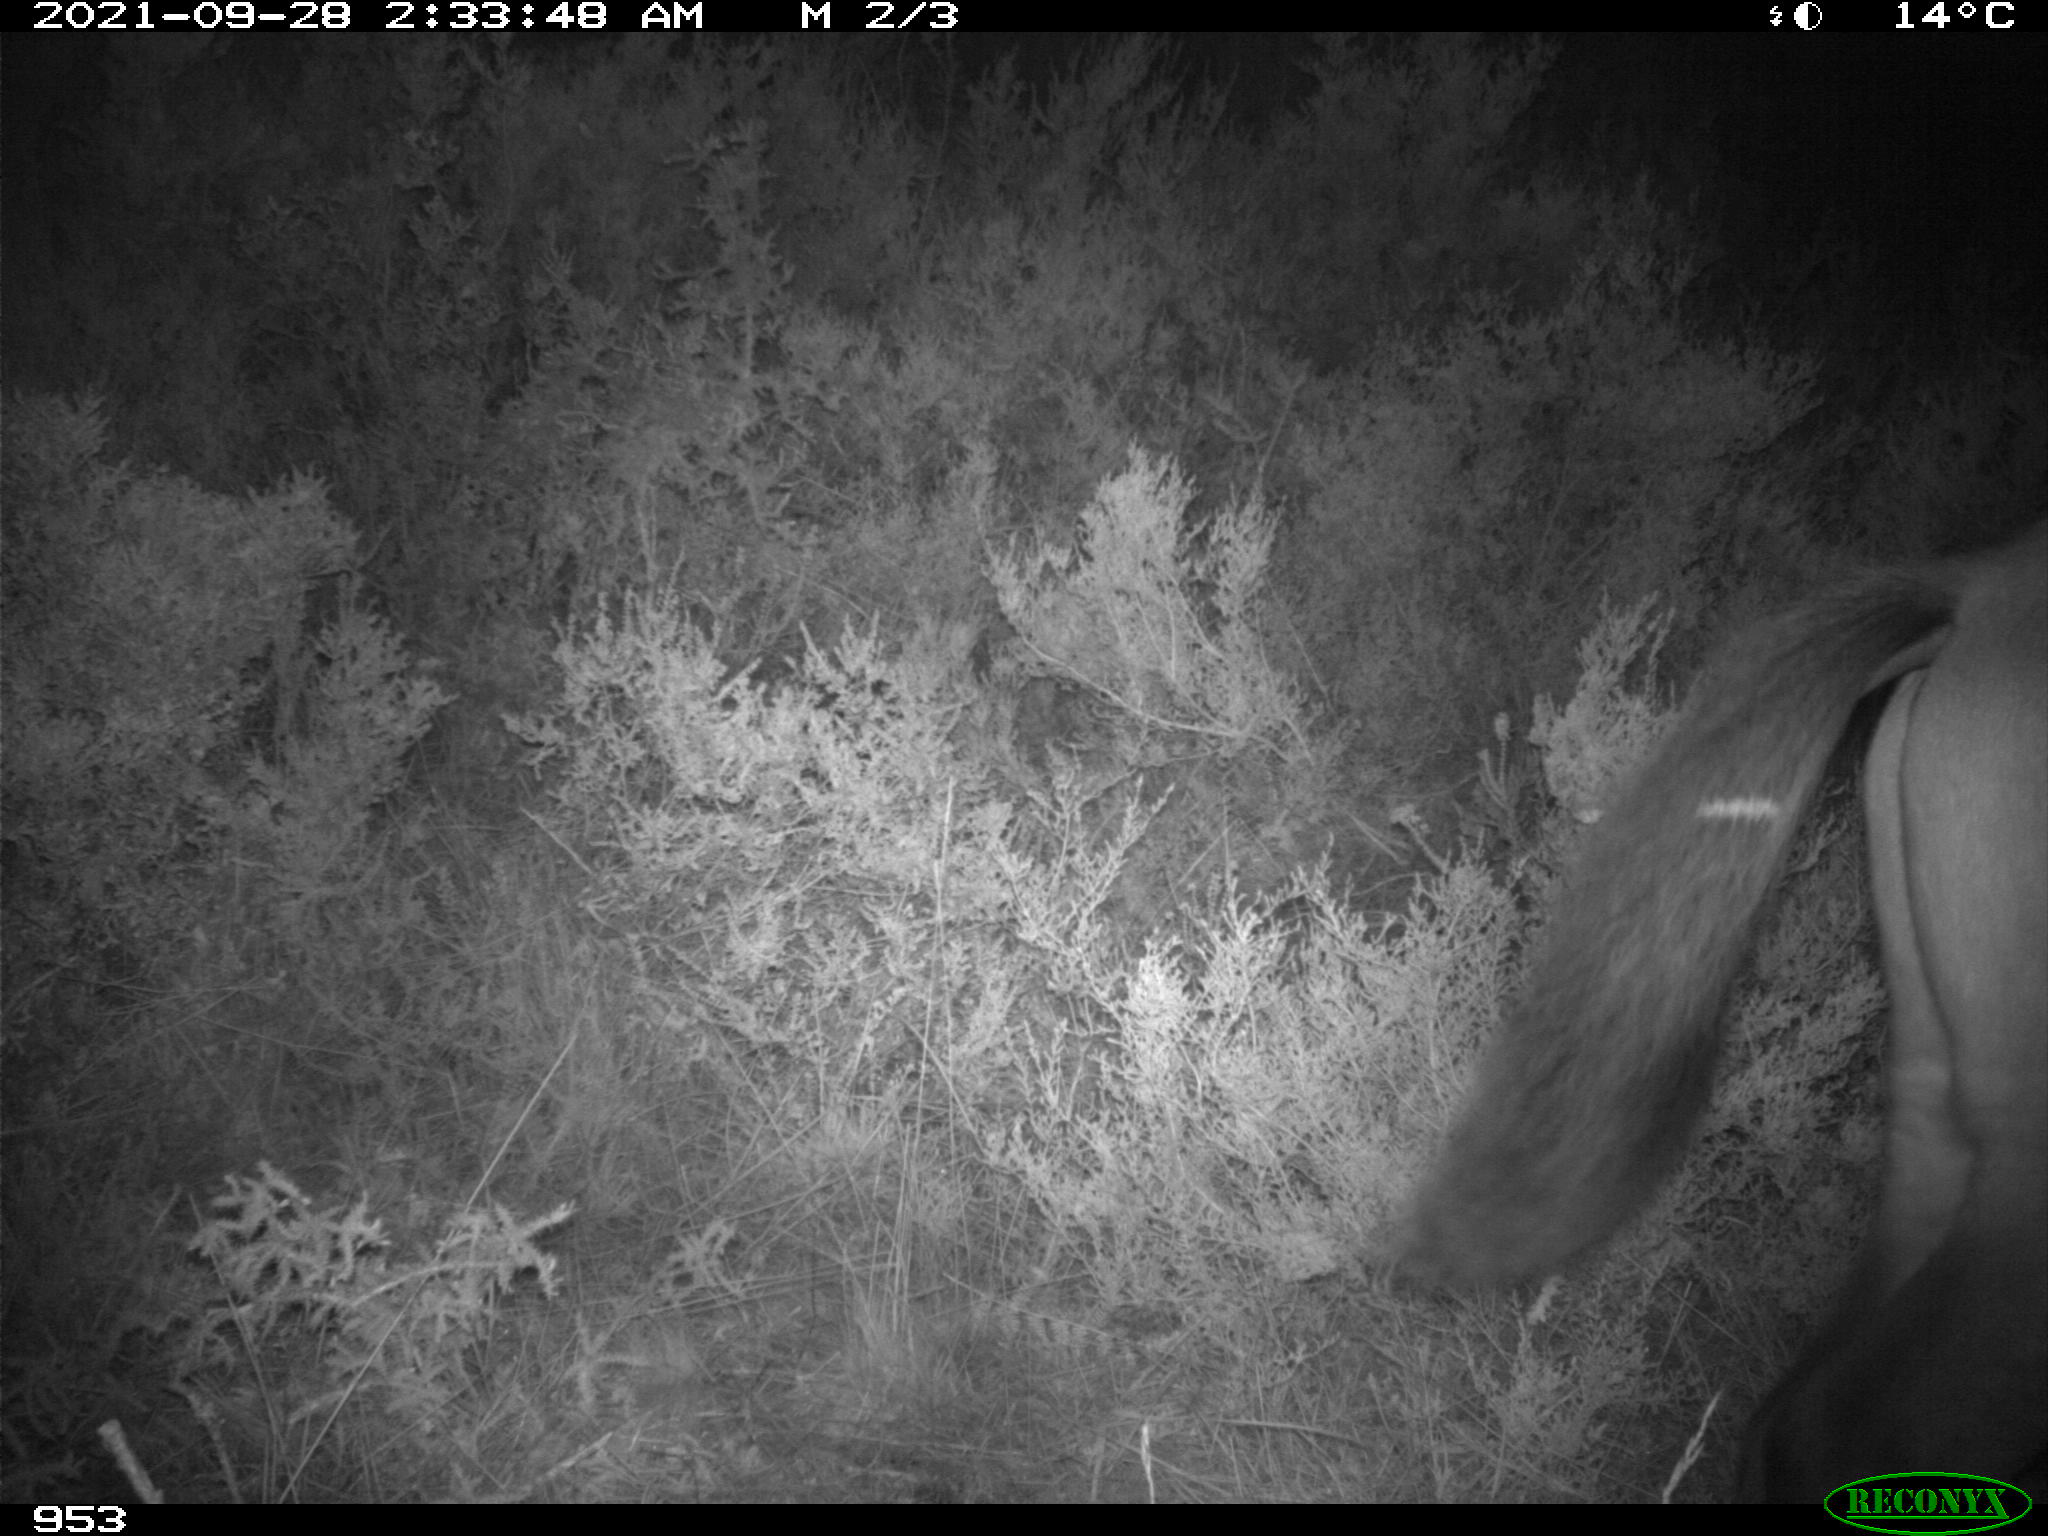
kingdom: Animalia
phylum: Chordata
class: Mammalia
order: Perissodactyla
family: Equidae
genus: Equus
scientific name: Equus caballus
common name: Horse
